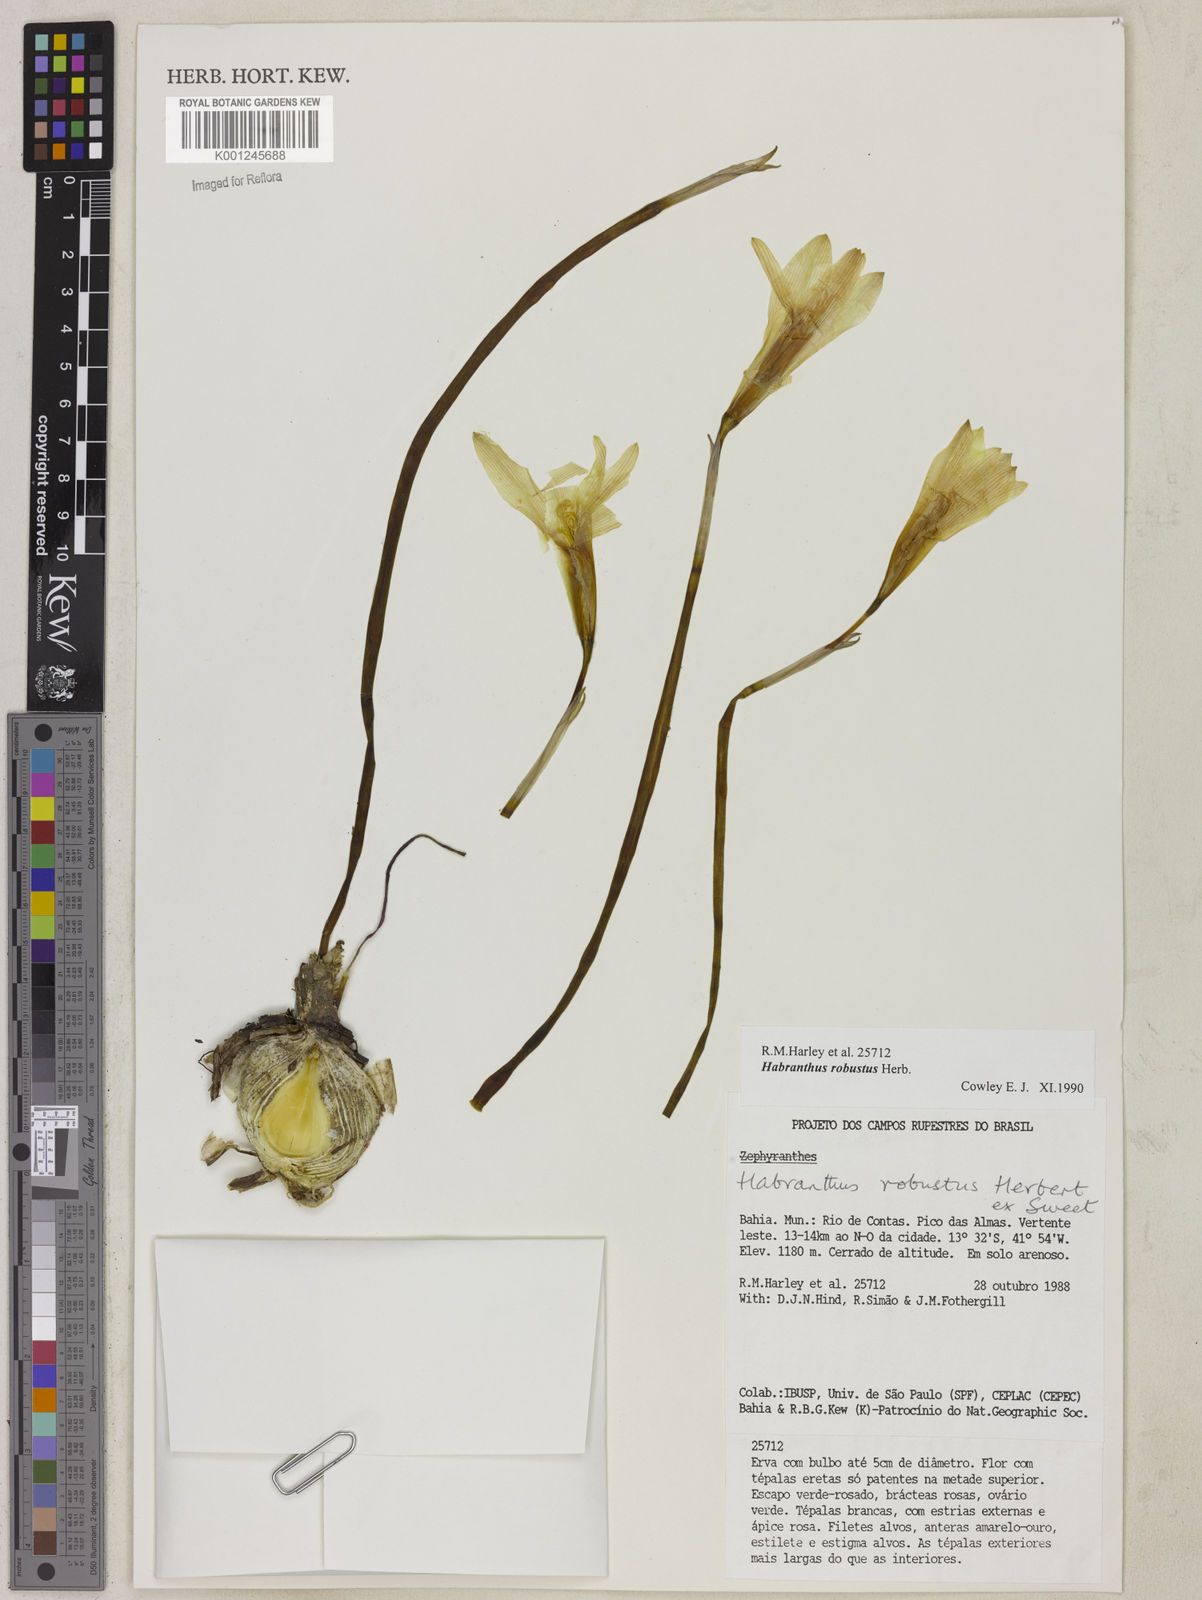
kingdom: Plantae
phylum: Tracheophyta
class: Liliopsida
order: Asparagales
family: Amaryllidaceae
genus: Zephyranthes
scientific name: Zephyranthes robusta
